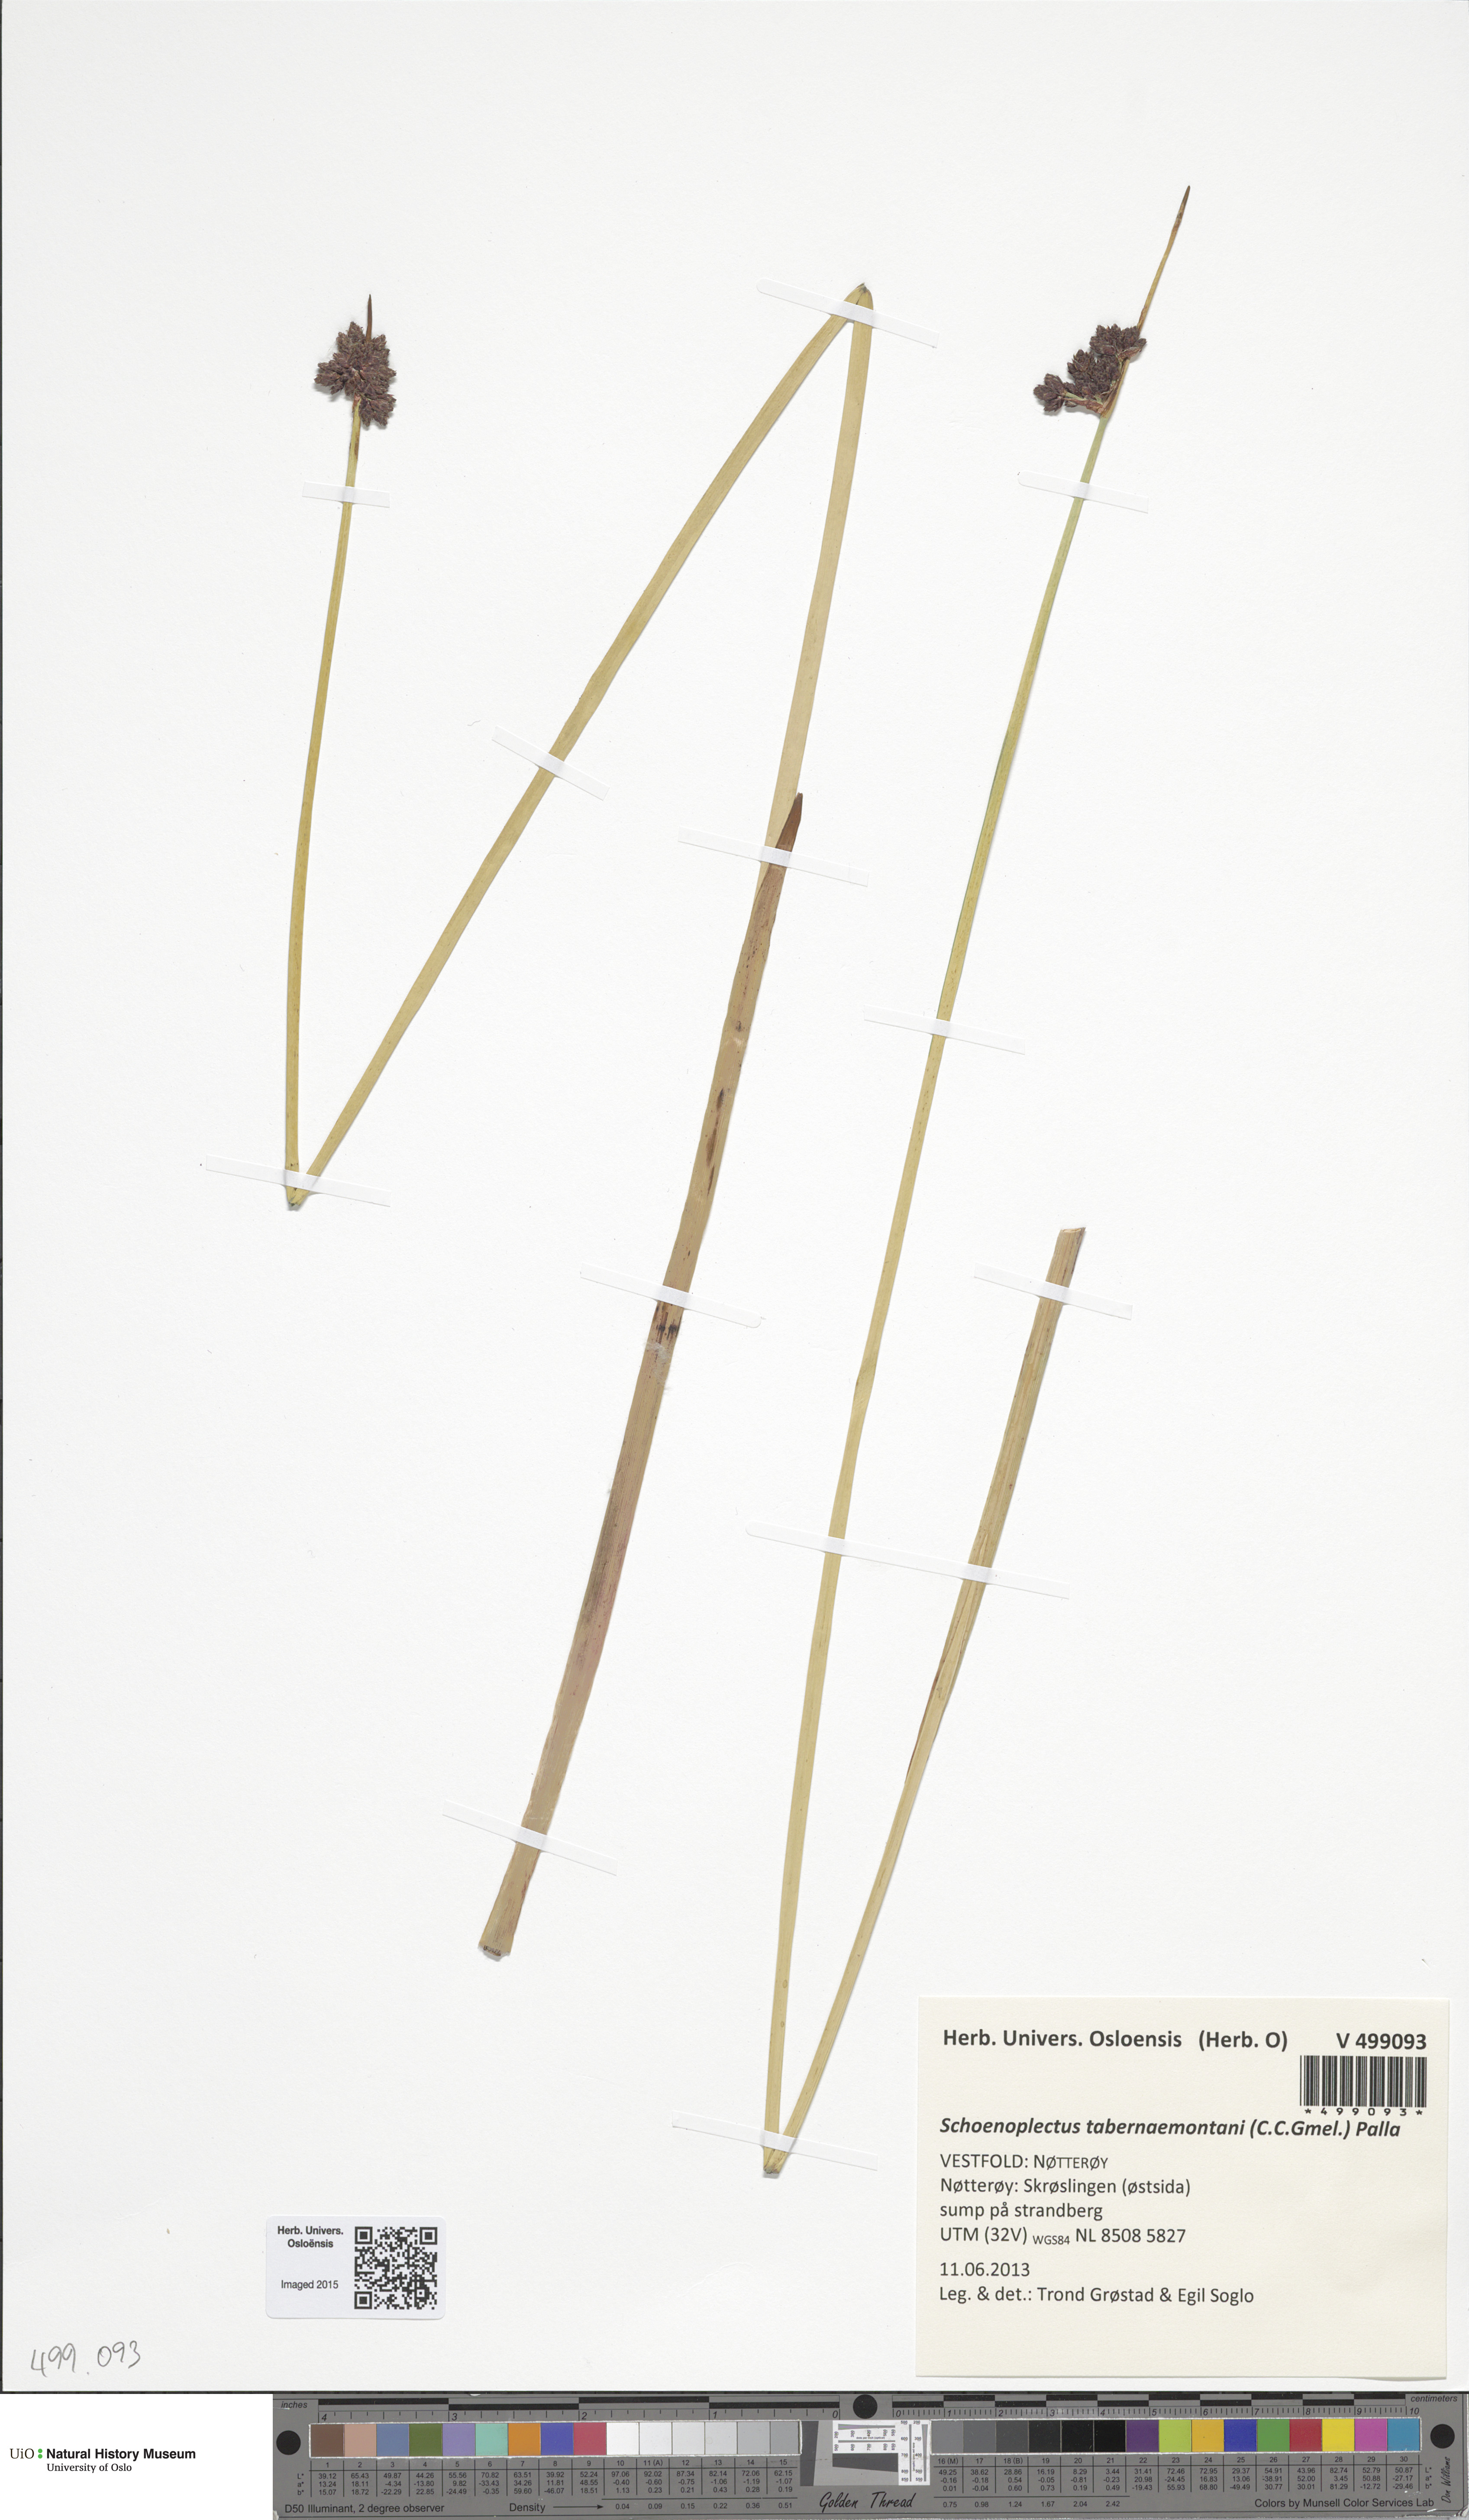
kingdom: Plantae
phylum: Tracheophyta
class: Liliopsida
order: Poales
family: Cyperaceae
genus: Schoenoplectus
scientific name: Schoenoplectus tabernaemontani
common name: Grey club-rush
